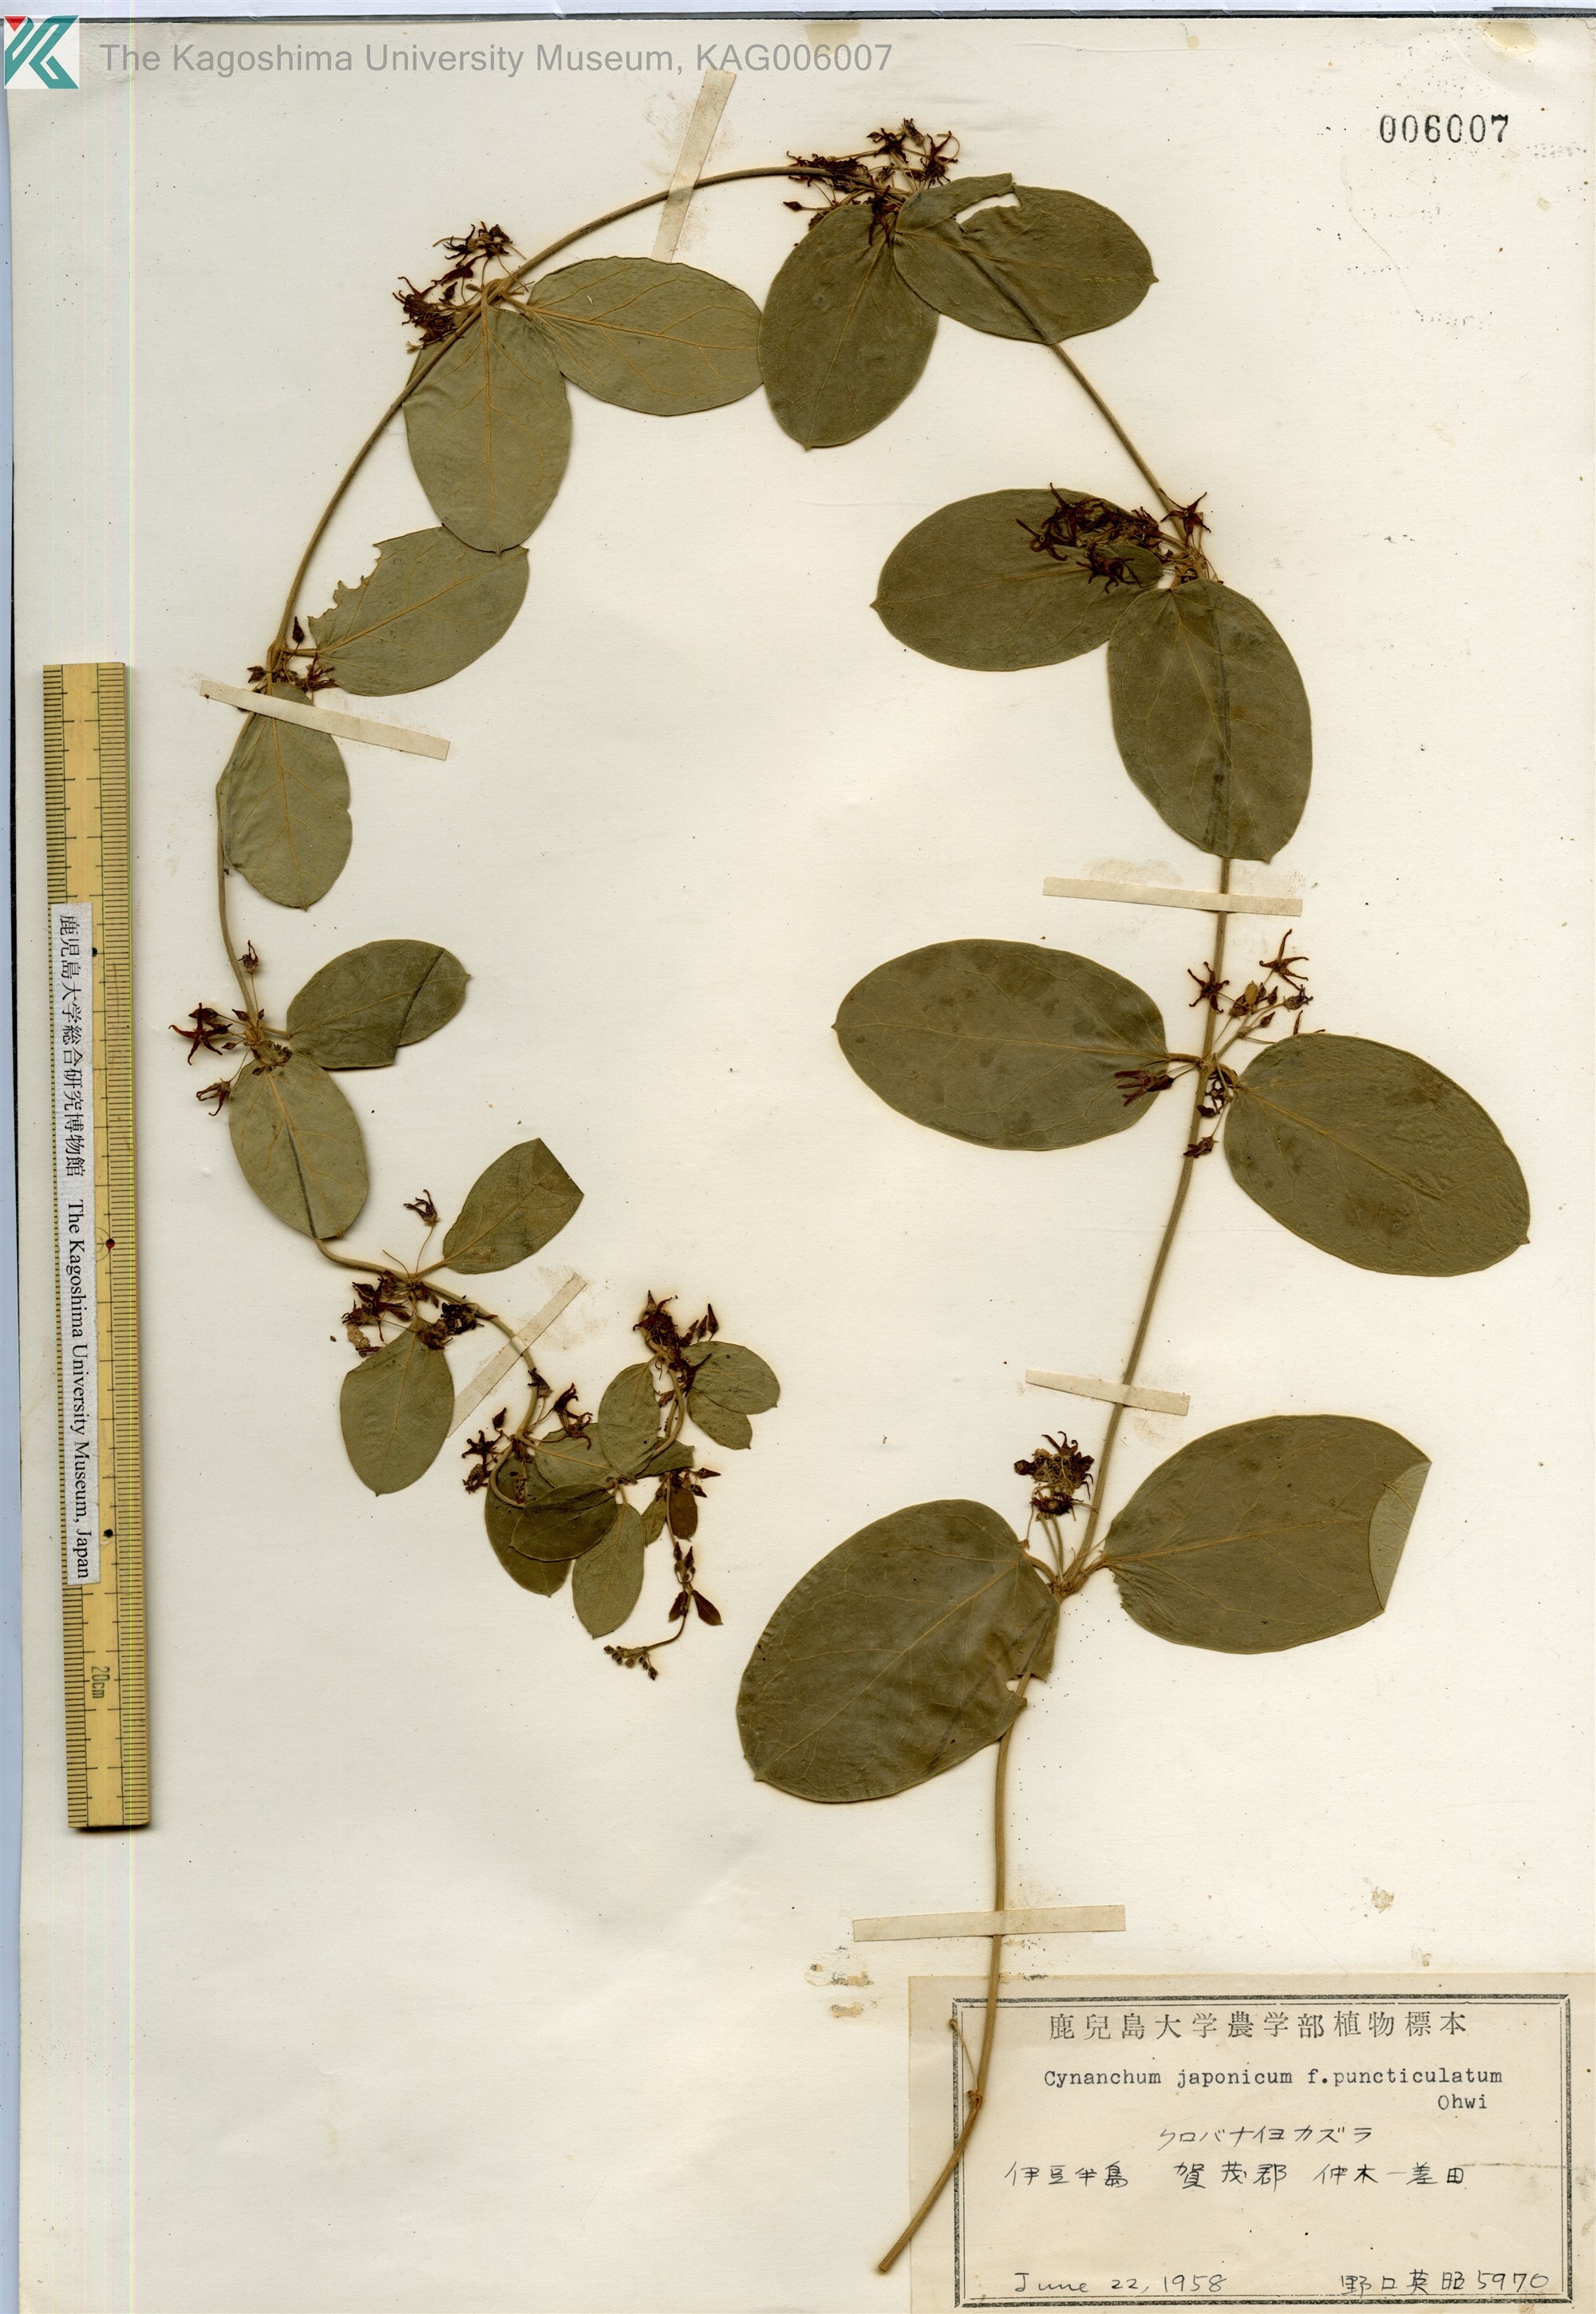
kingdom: Plantae
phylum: Tracheophyta
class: Magnoliopsida
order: Gentianales
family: Apocynaceae
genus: Vincetoxicum
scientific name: Vincetoxicum japonicum
